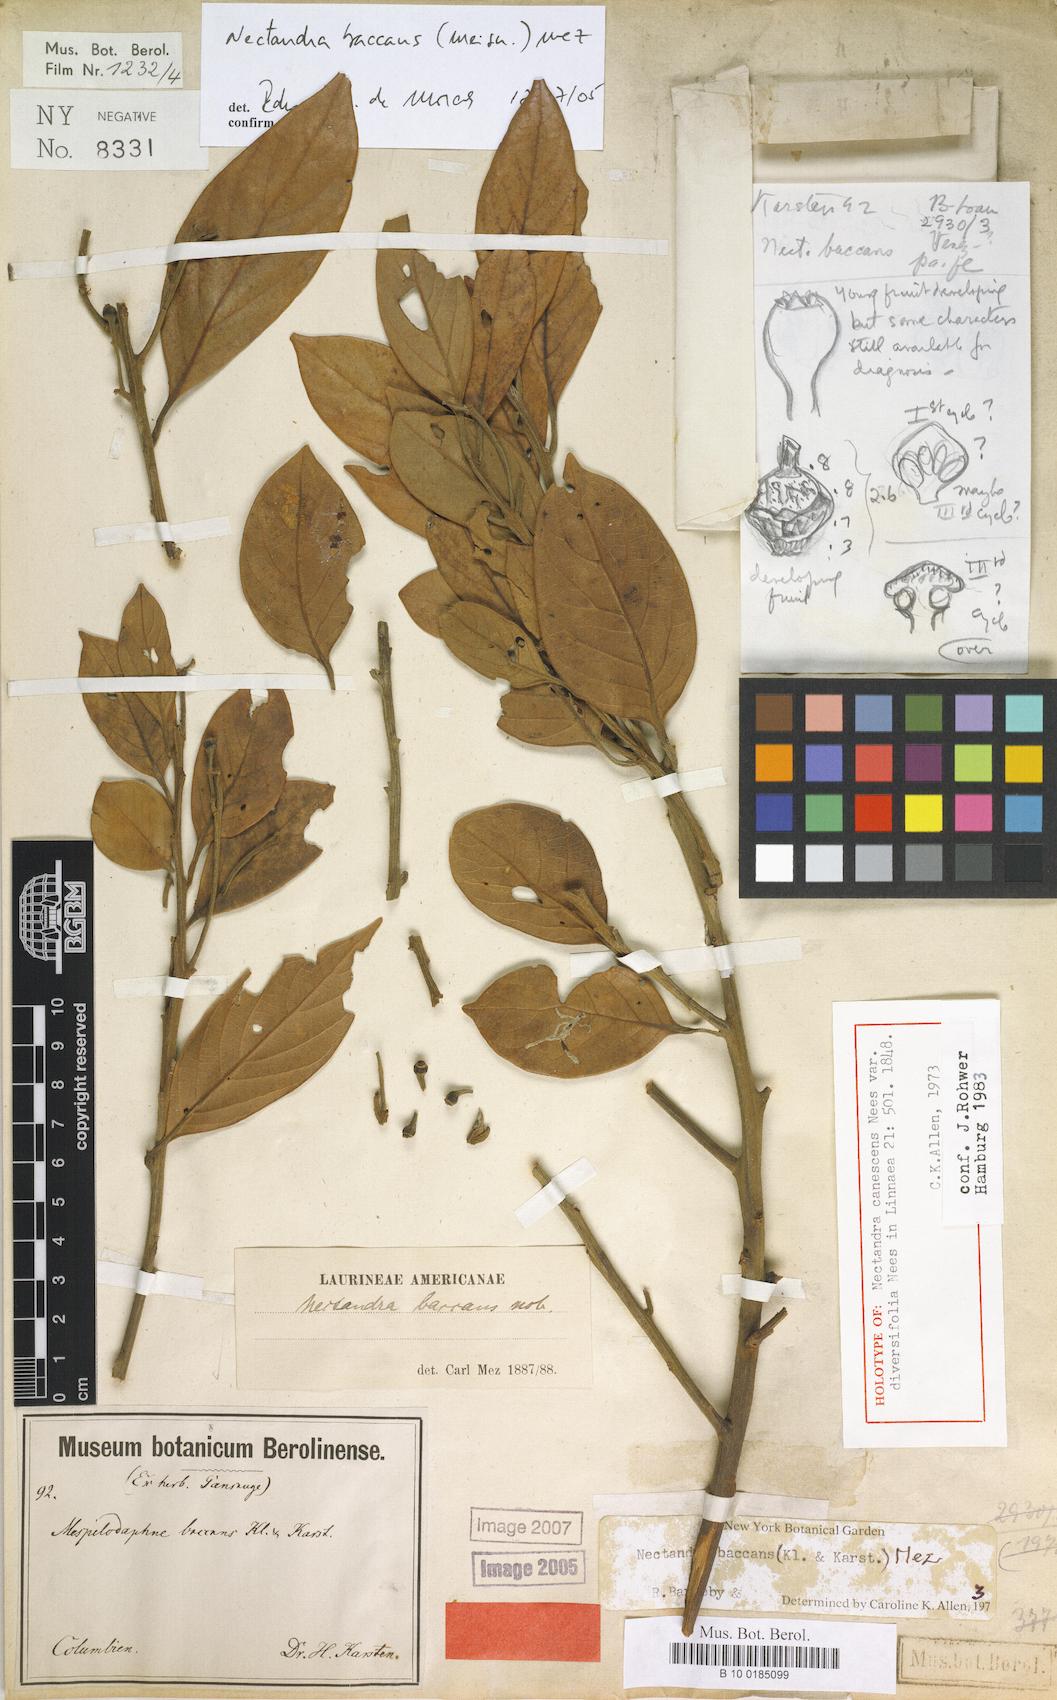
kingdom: Plantae
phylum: Tracheophyta
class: Magnoliopsida
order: Laurales
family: Lauraceae
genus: Nectandra
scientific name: Nectandra baccans
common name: Berrylike nectandra
